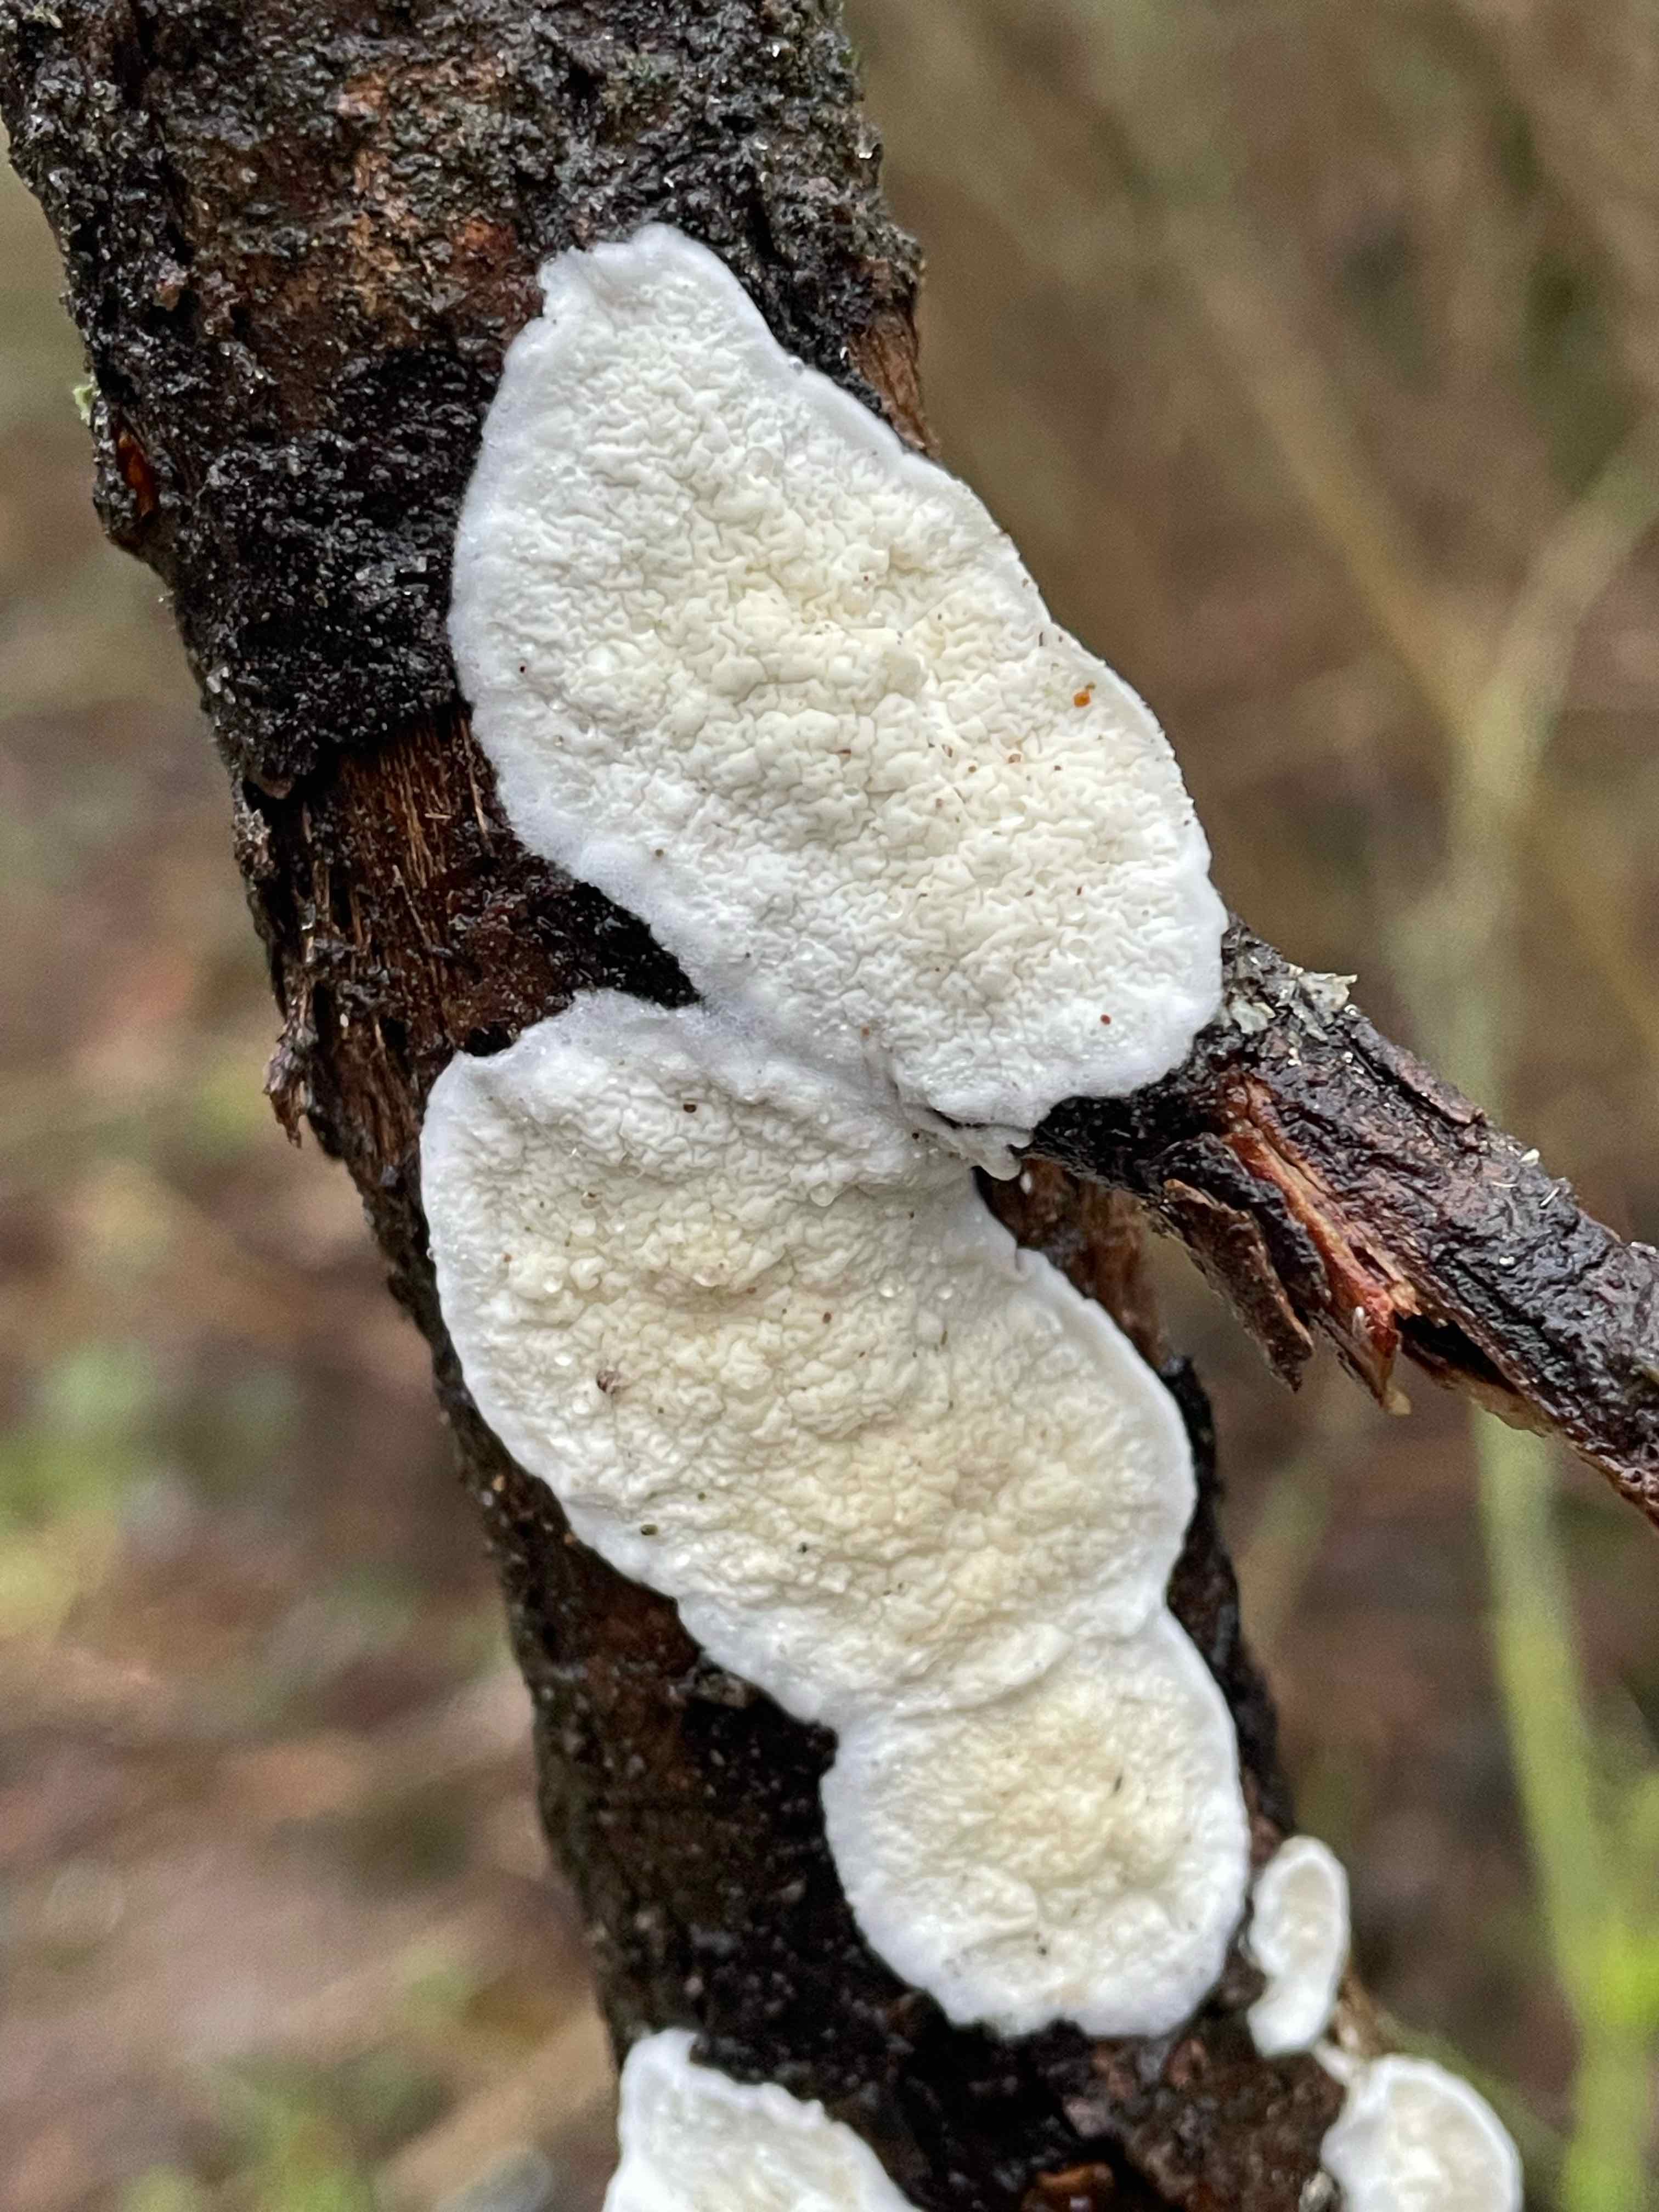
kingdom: Fungi
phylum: Basidiomycota
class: Agaricomycetes
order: Polyporales
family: Irpicaceae
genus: Byssomerulius
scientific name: Byssomerulius corium
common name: læder-åresvamp
